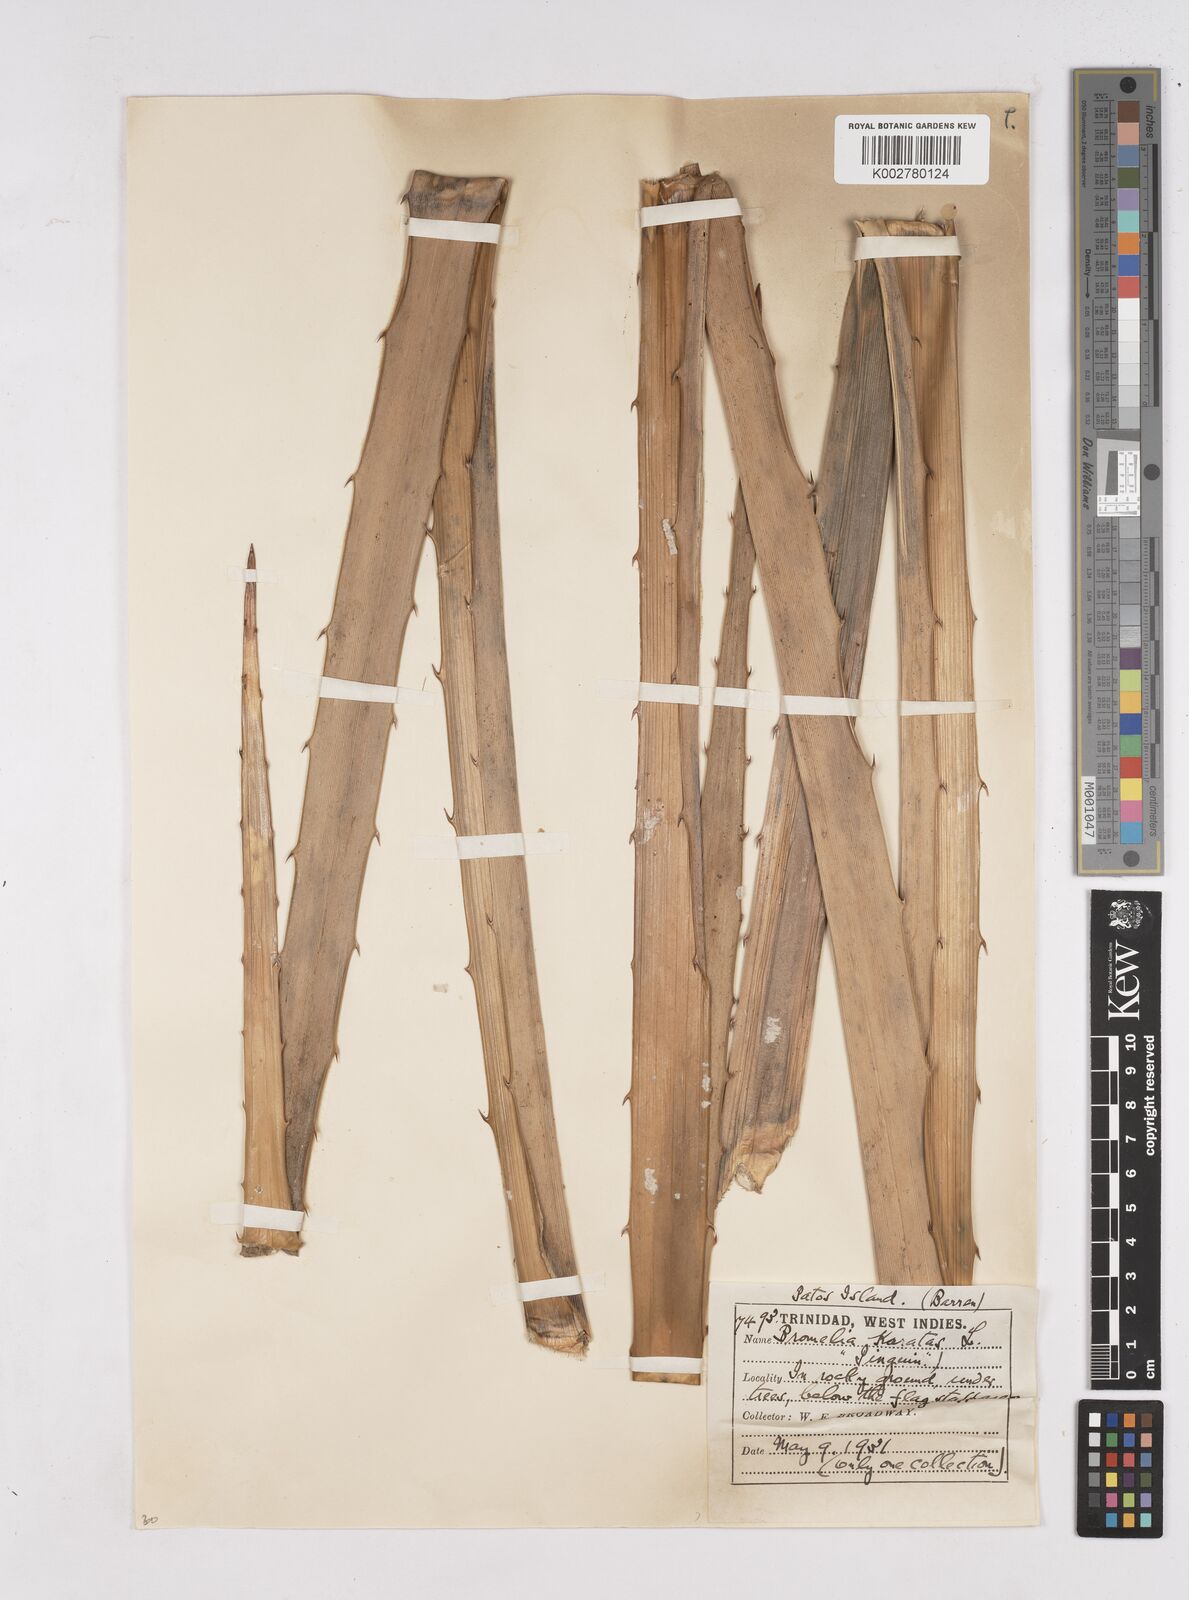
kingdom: Plantae
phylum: Tracheophyta
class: Liliopsida
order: Poales
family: Bromeliaceae
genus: Bromelia
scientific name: Bromelia karatas
